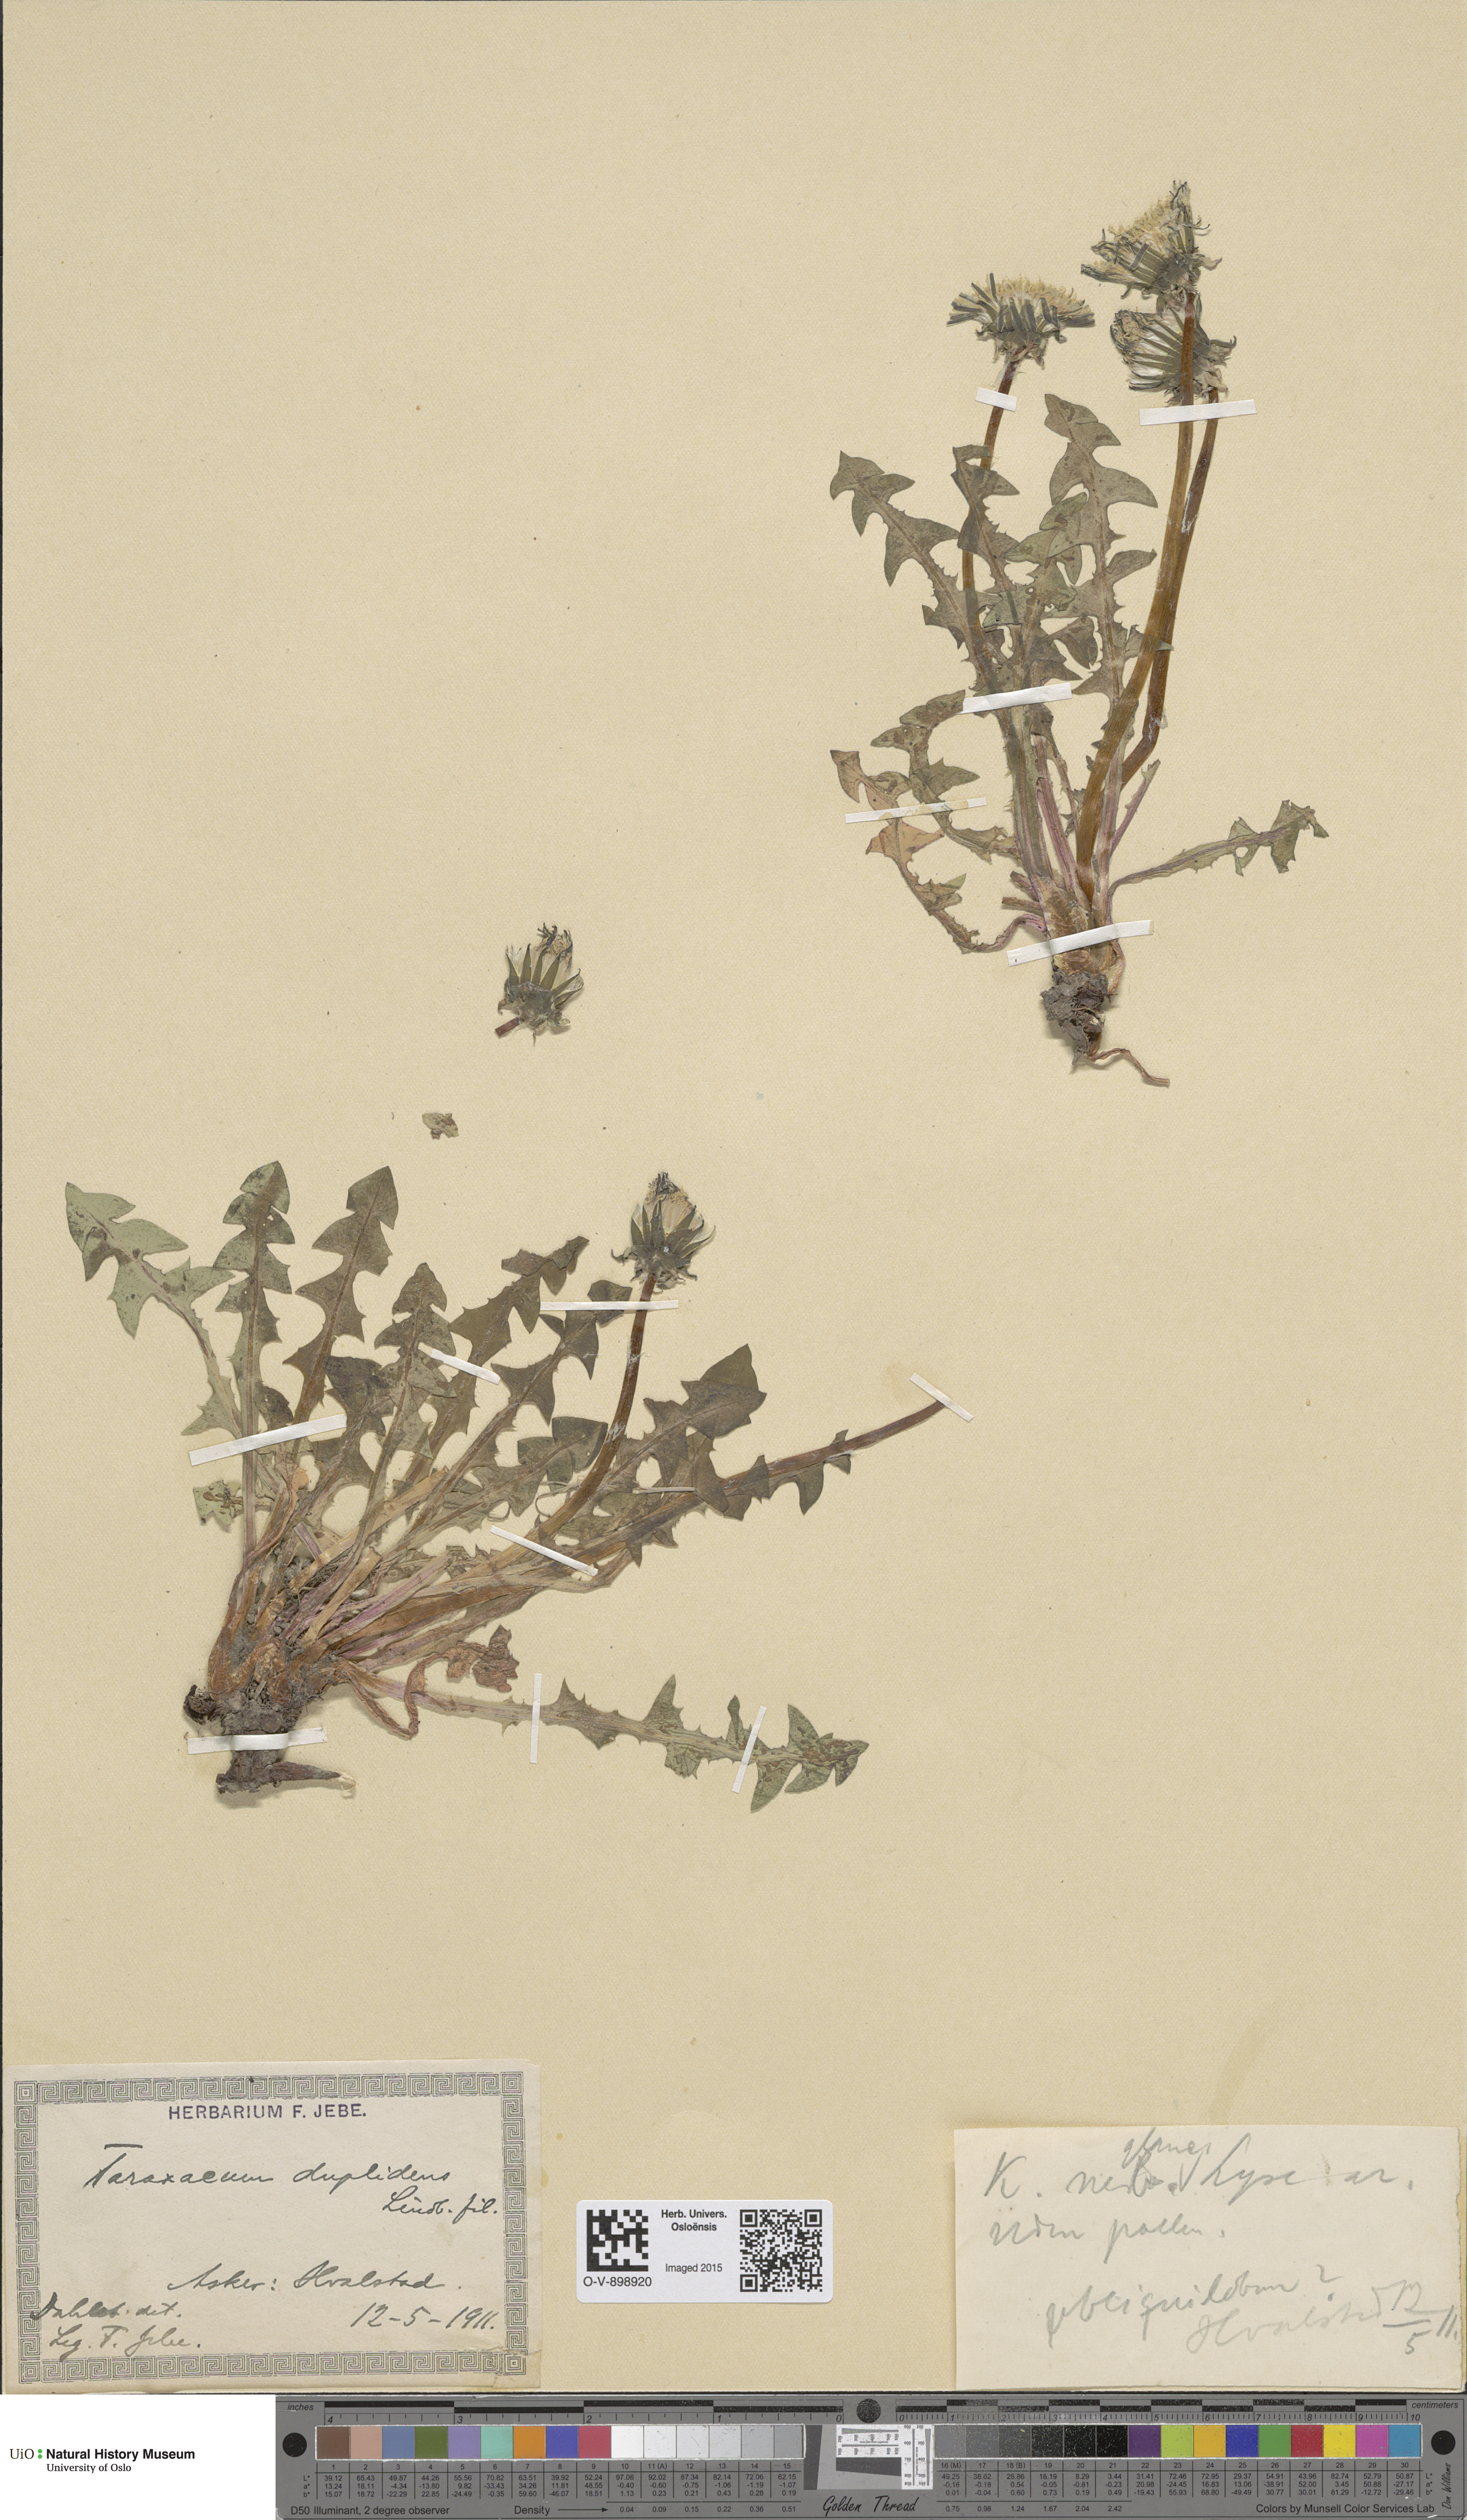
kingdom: Plantae
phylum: Tracheophyta
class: Magnoliopsida
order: Asterales
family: Asteraceae
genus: Taraxacum
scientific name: Taraxacum ostenfeldii
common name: Ostenfeld's dandelion
